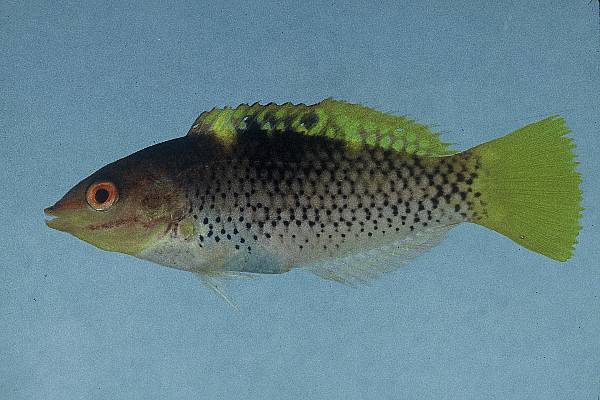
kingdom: Animalia
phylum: Chordata
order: Perciformes
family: Labridae
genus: Halichoeres
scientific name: Halichoeres hortulanus
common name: Checkerboard wrasse
